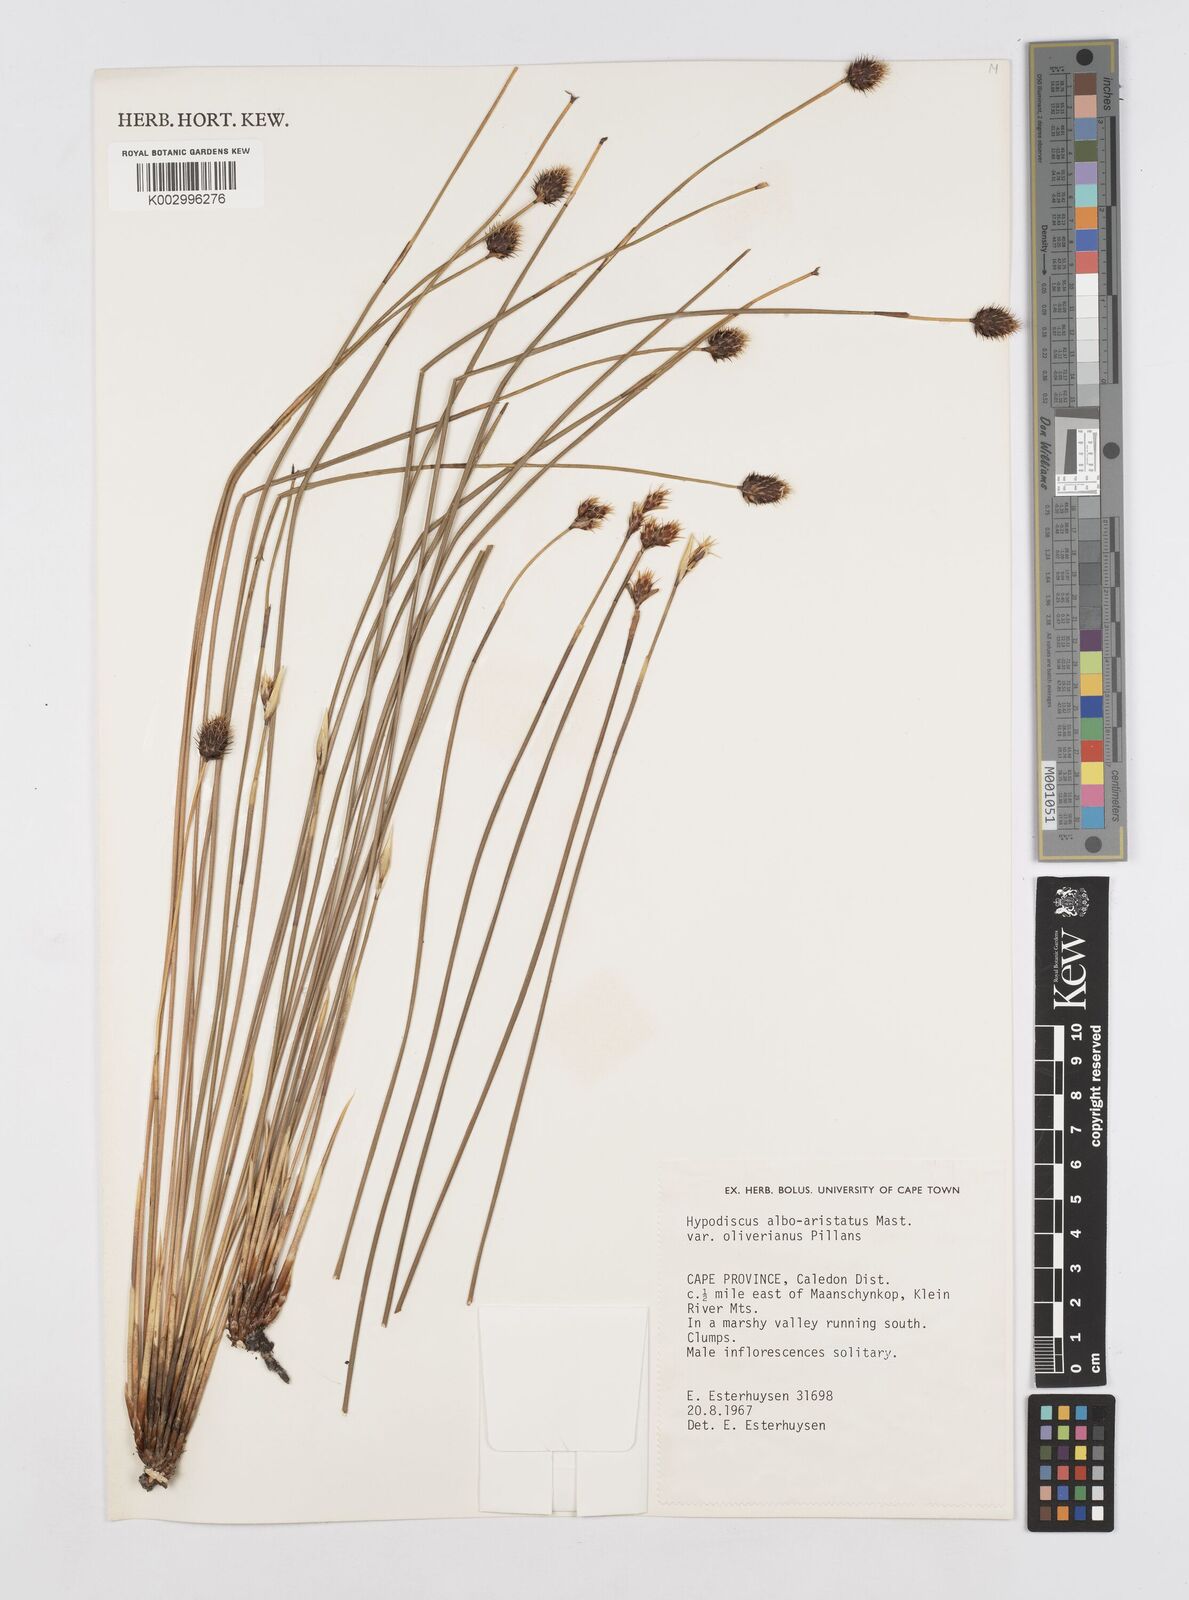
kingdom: Plantae
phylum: Tracheophyta
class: Liliopsida
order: Poales
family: Restionaceae
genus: Hypodiscus
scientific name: Hypodiscus alboaristatus
